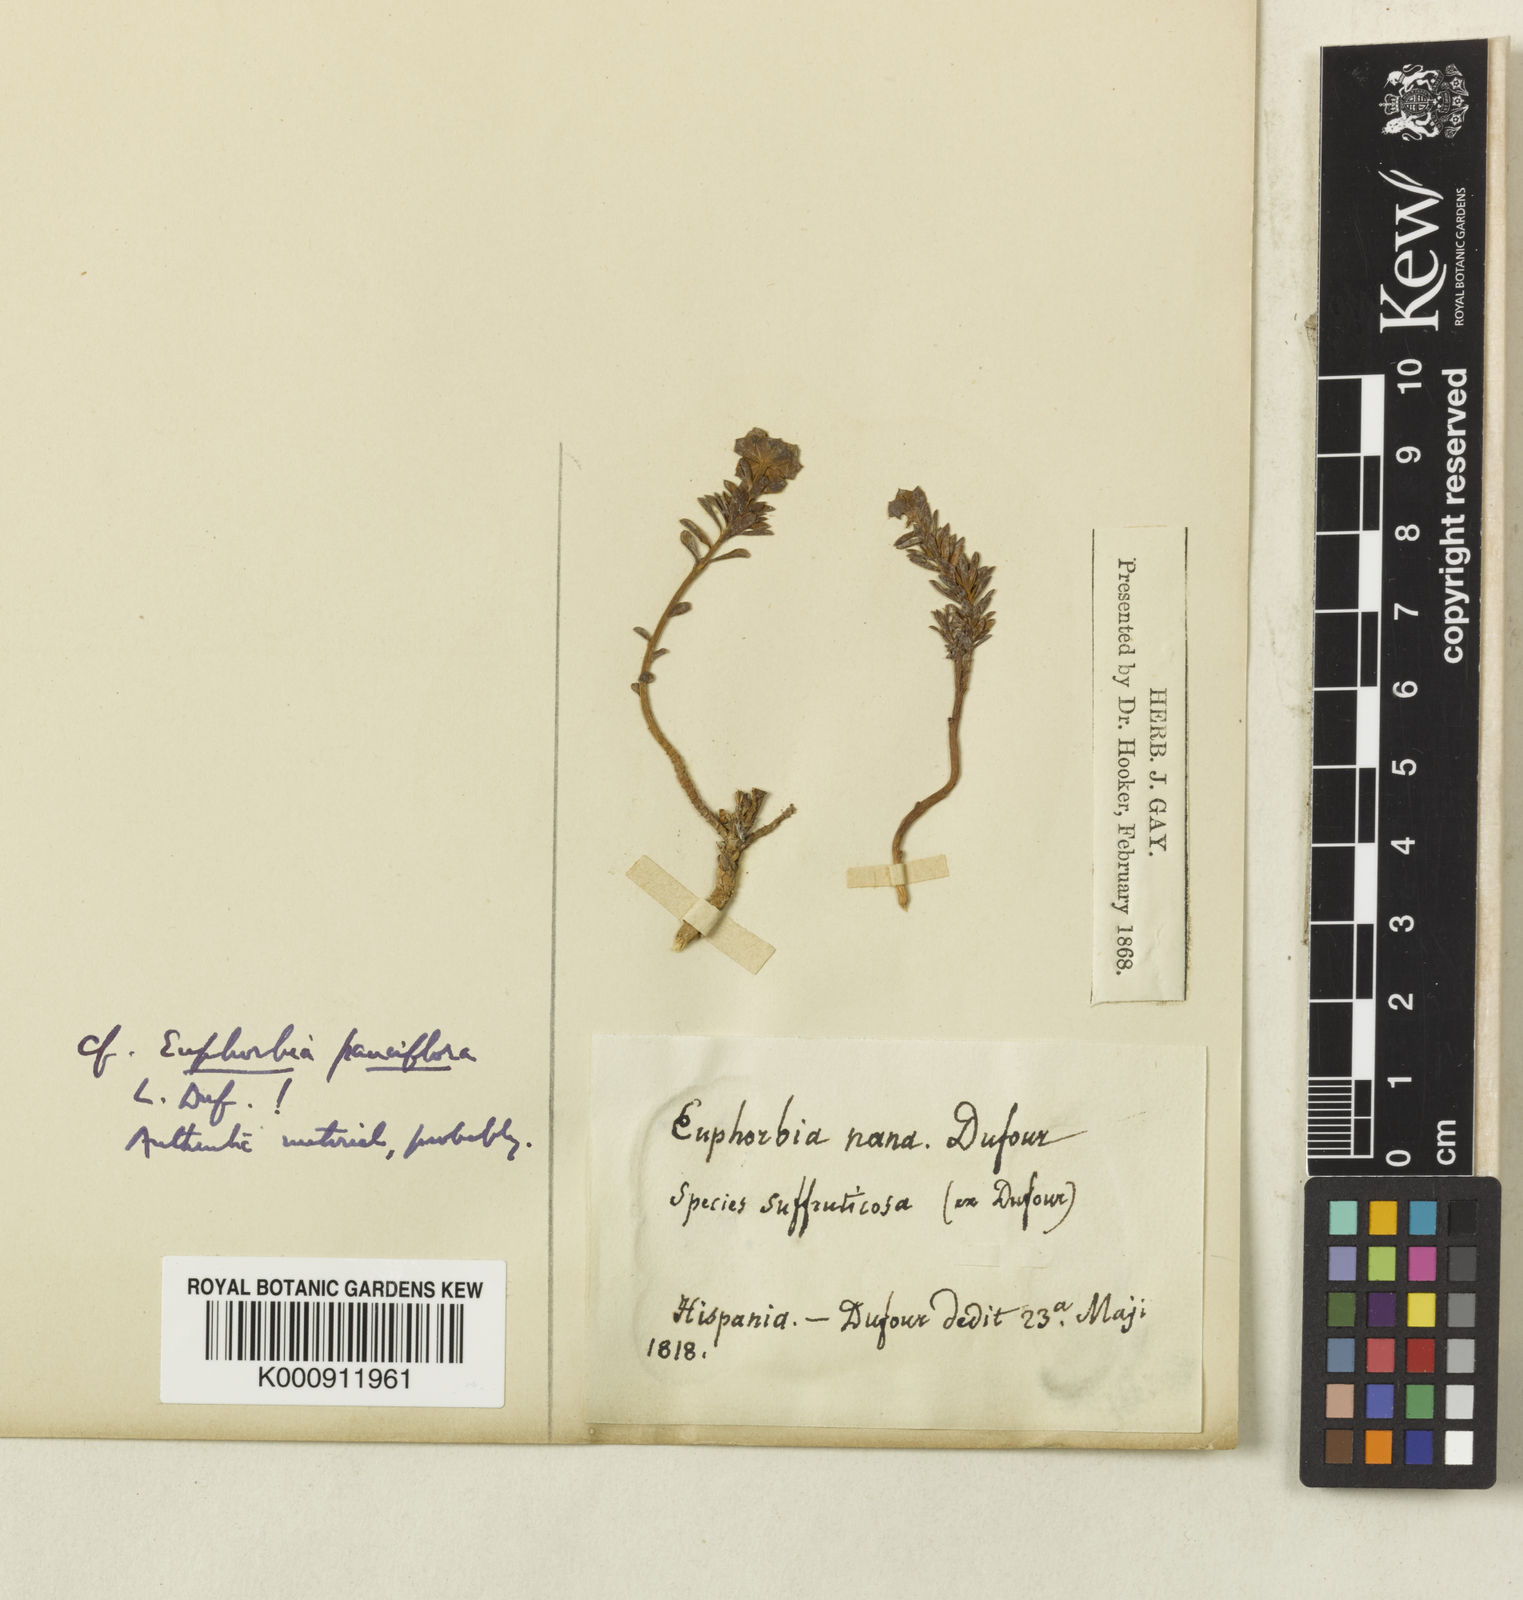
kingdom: Plantae
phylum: Tracheophyta
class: Magnoliopsida
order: Malpighiales
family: Euphorbiaceae
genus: Euphorbia
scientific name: Euphorbia minuta
